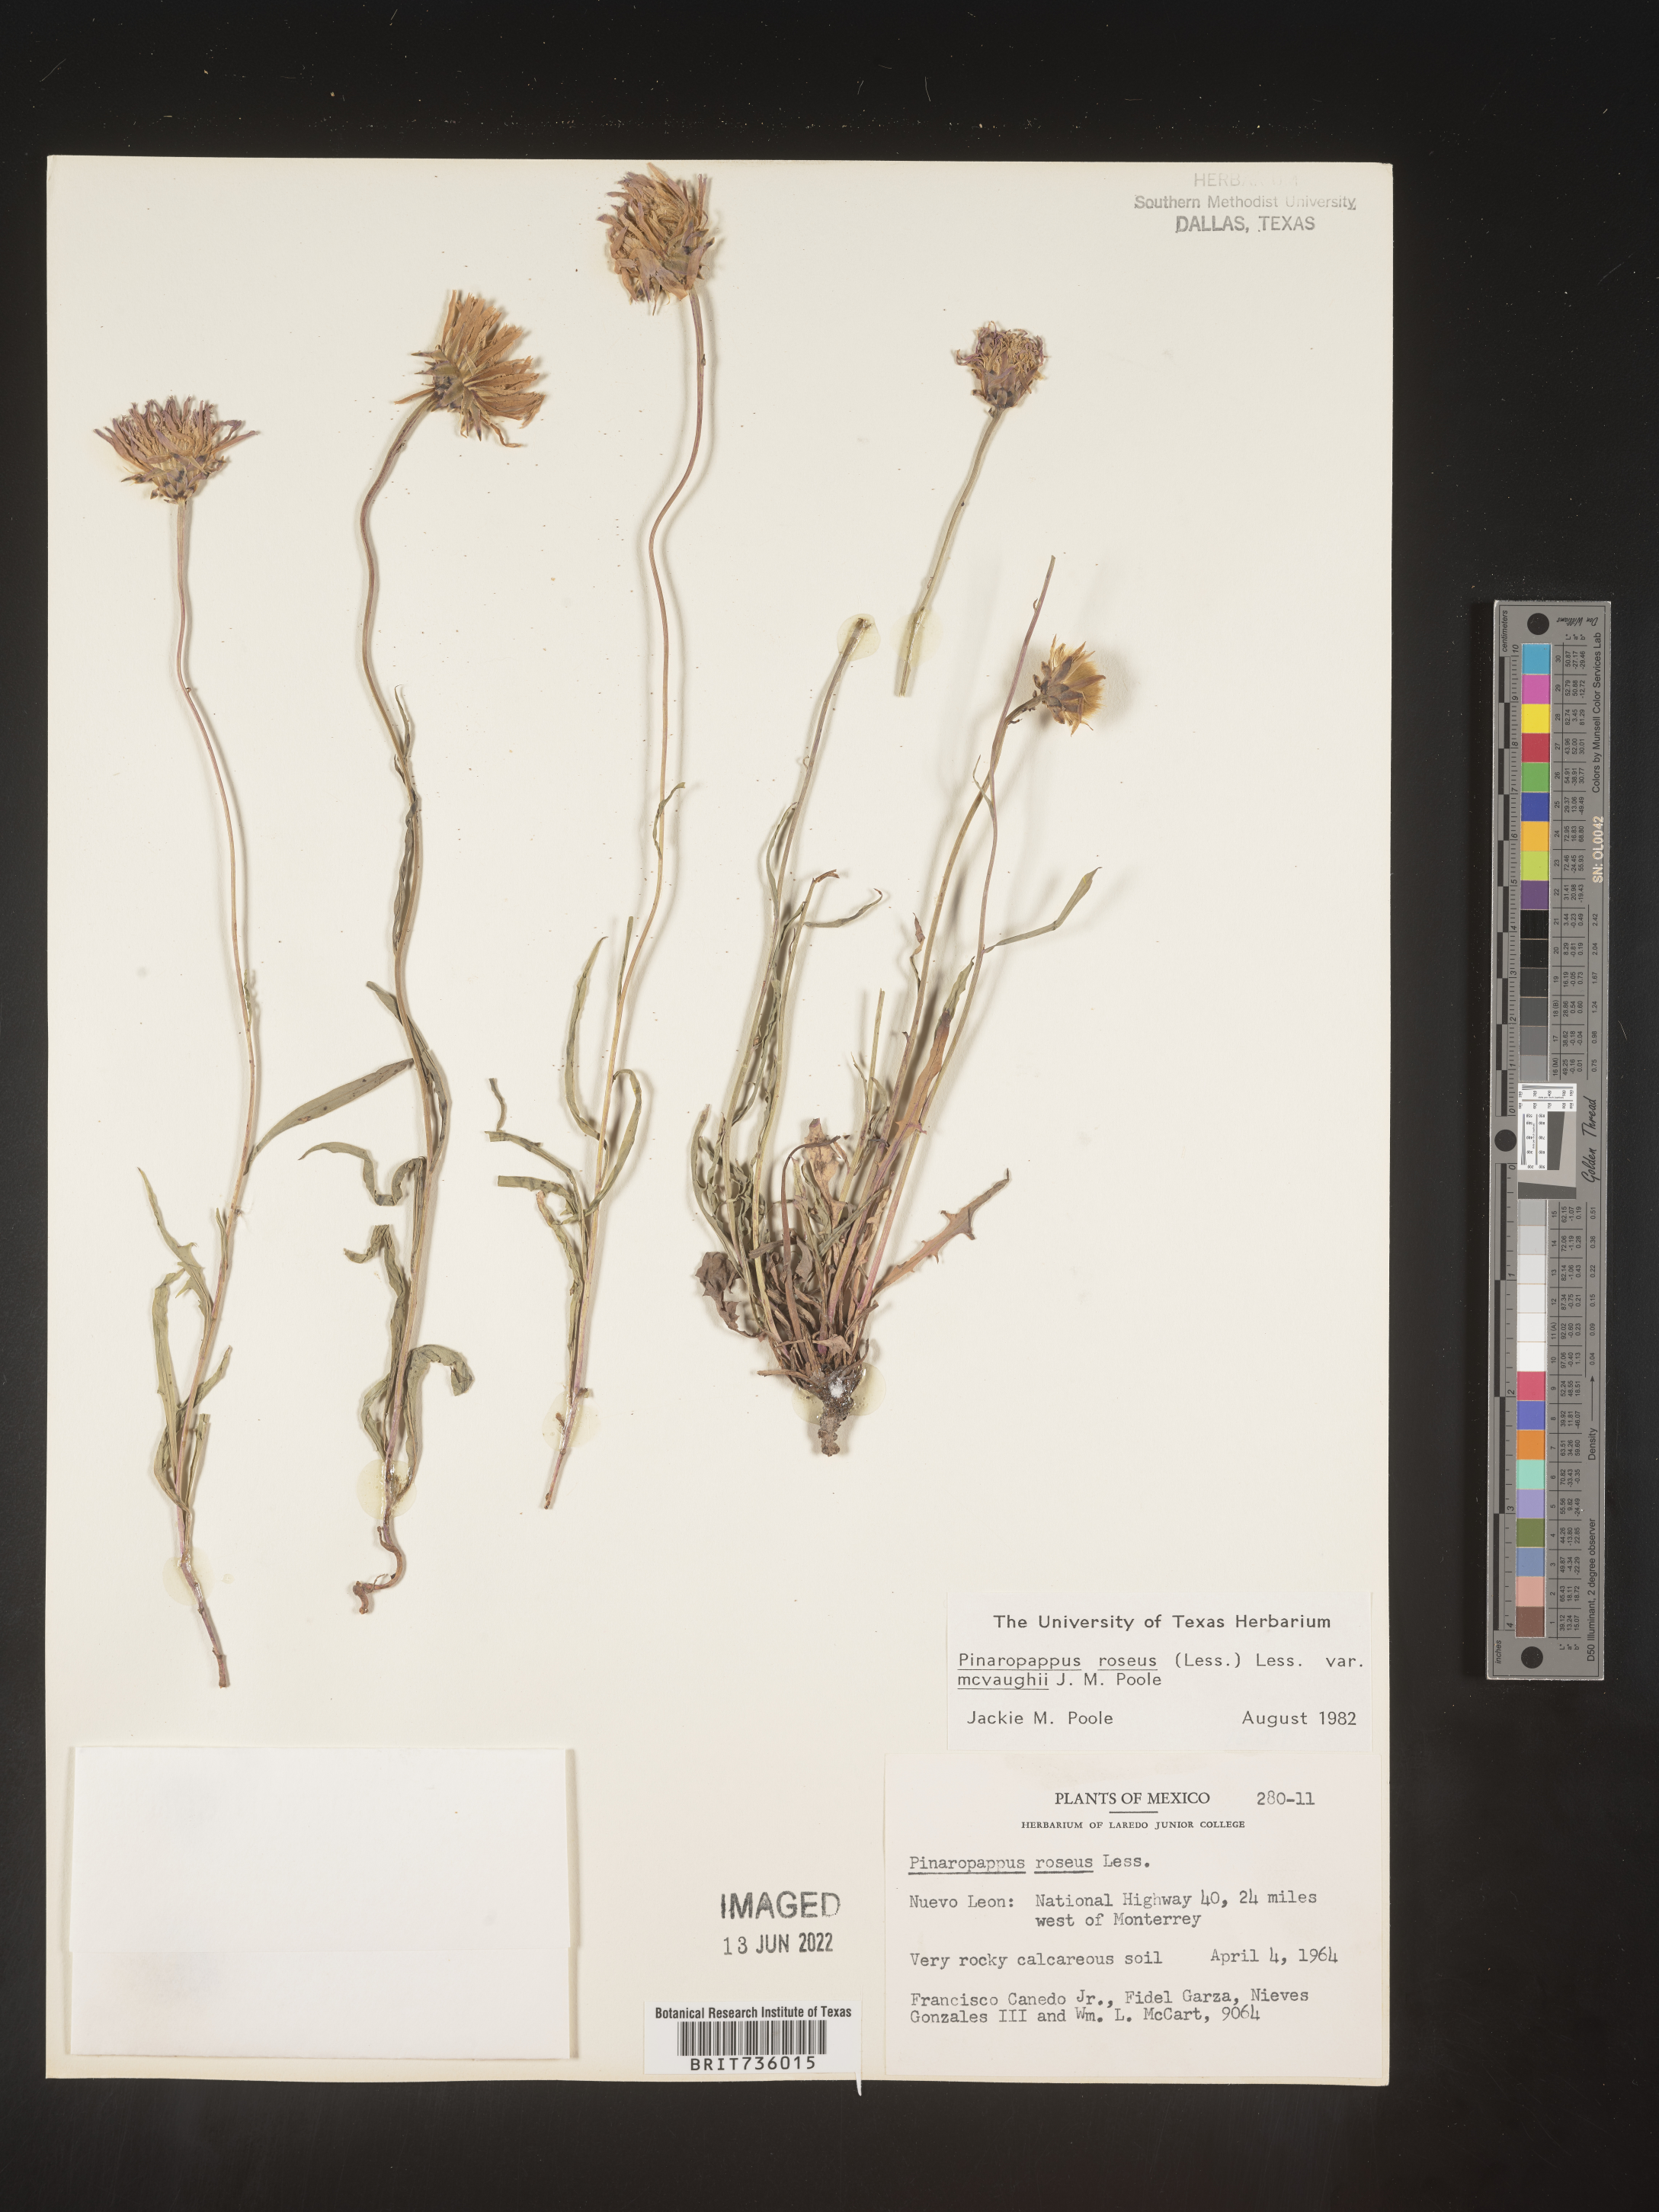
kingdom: Plantae
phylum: Tracheophyta
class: Magnoliopsida
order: Asterales
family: Asteraceae
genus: Pinaropappus
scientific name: Pinaropappus
